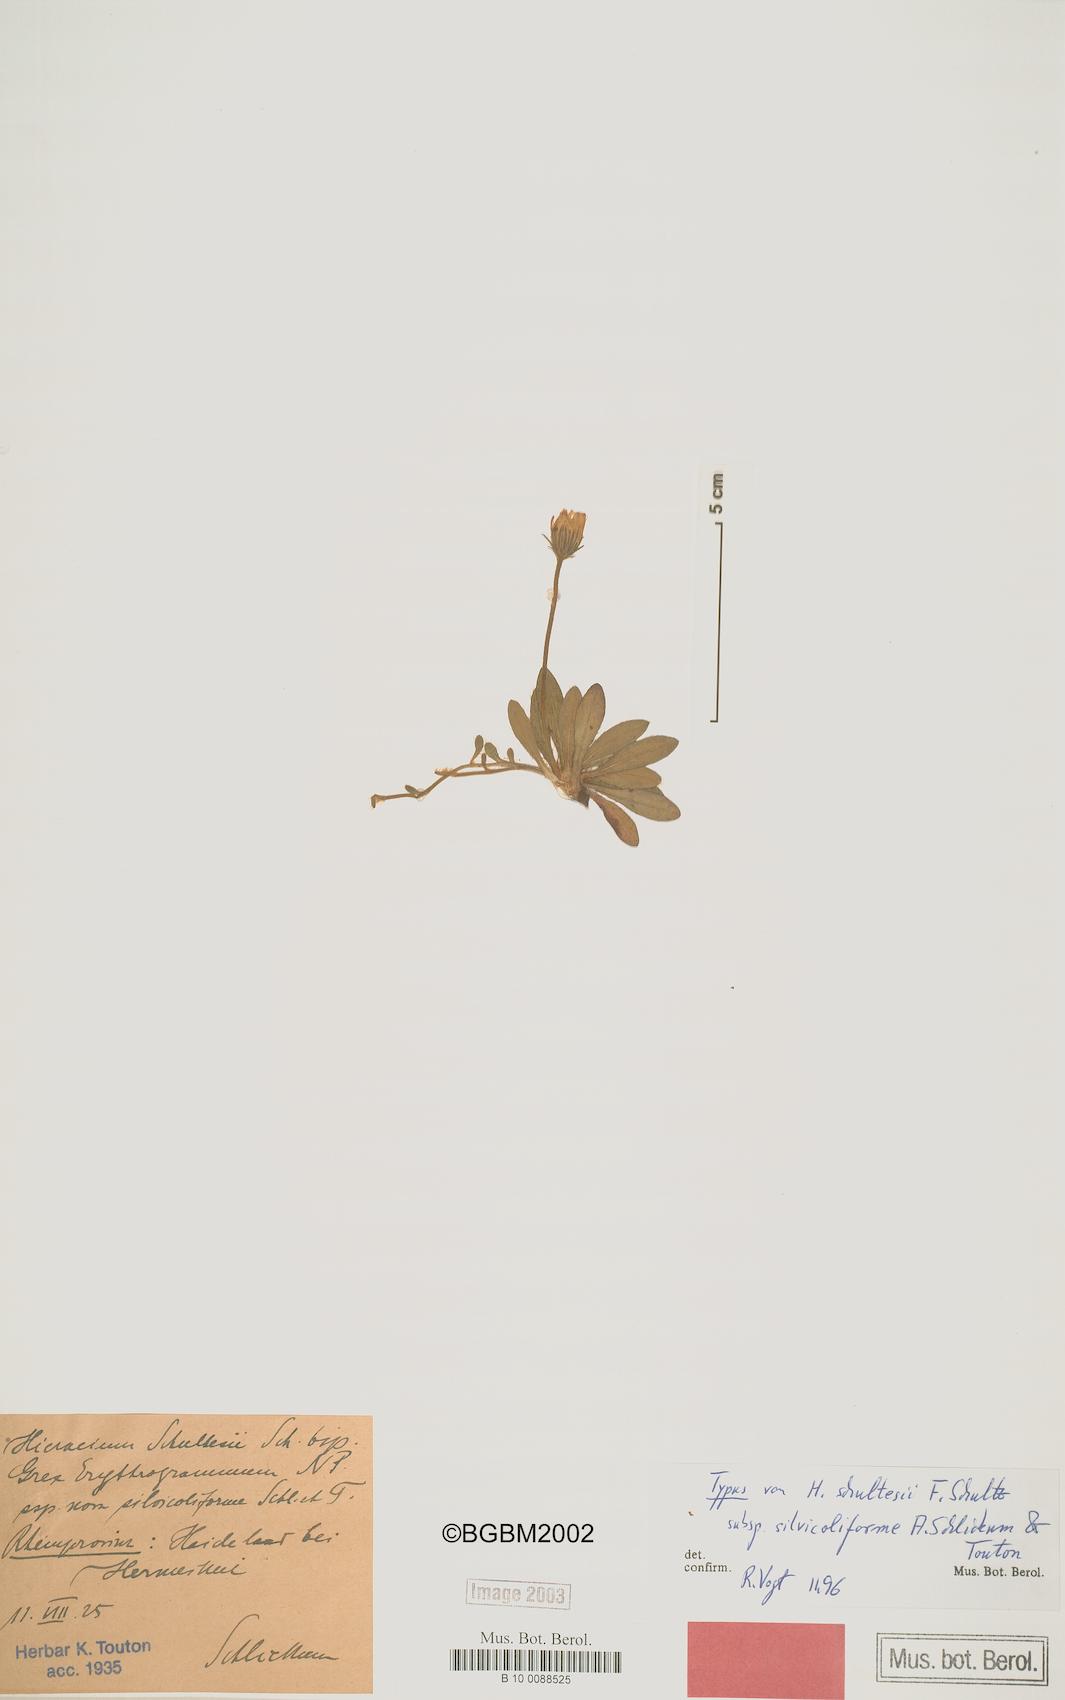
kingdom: Plantae
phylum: Tracheophyta
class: Magnoliopsida
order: Asterales
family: Asteraceae
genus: Pilosella
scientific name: Pilosella schultesii
